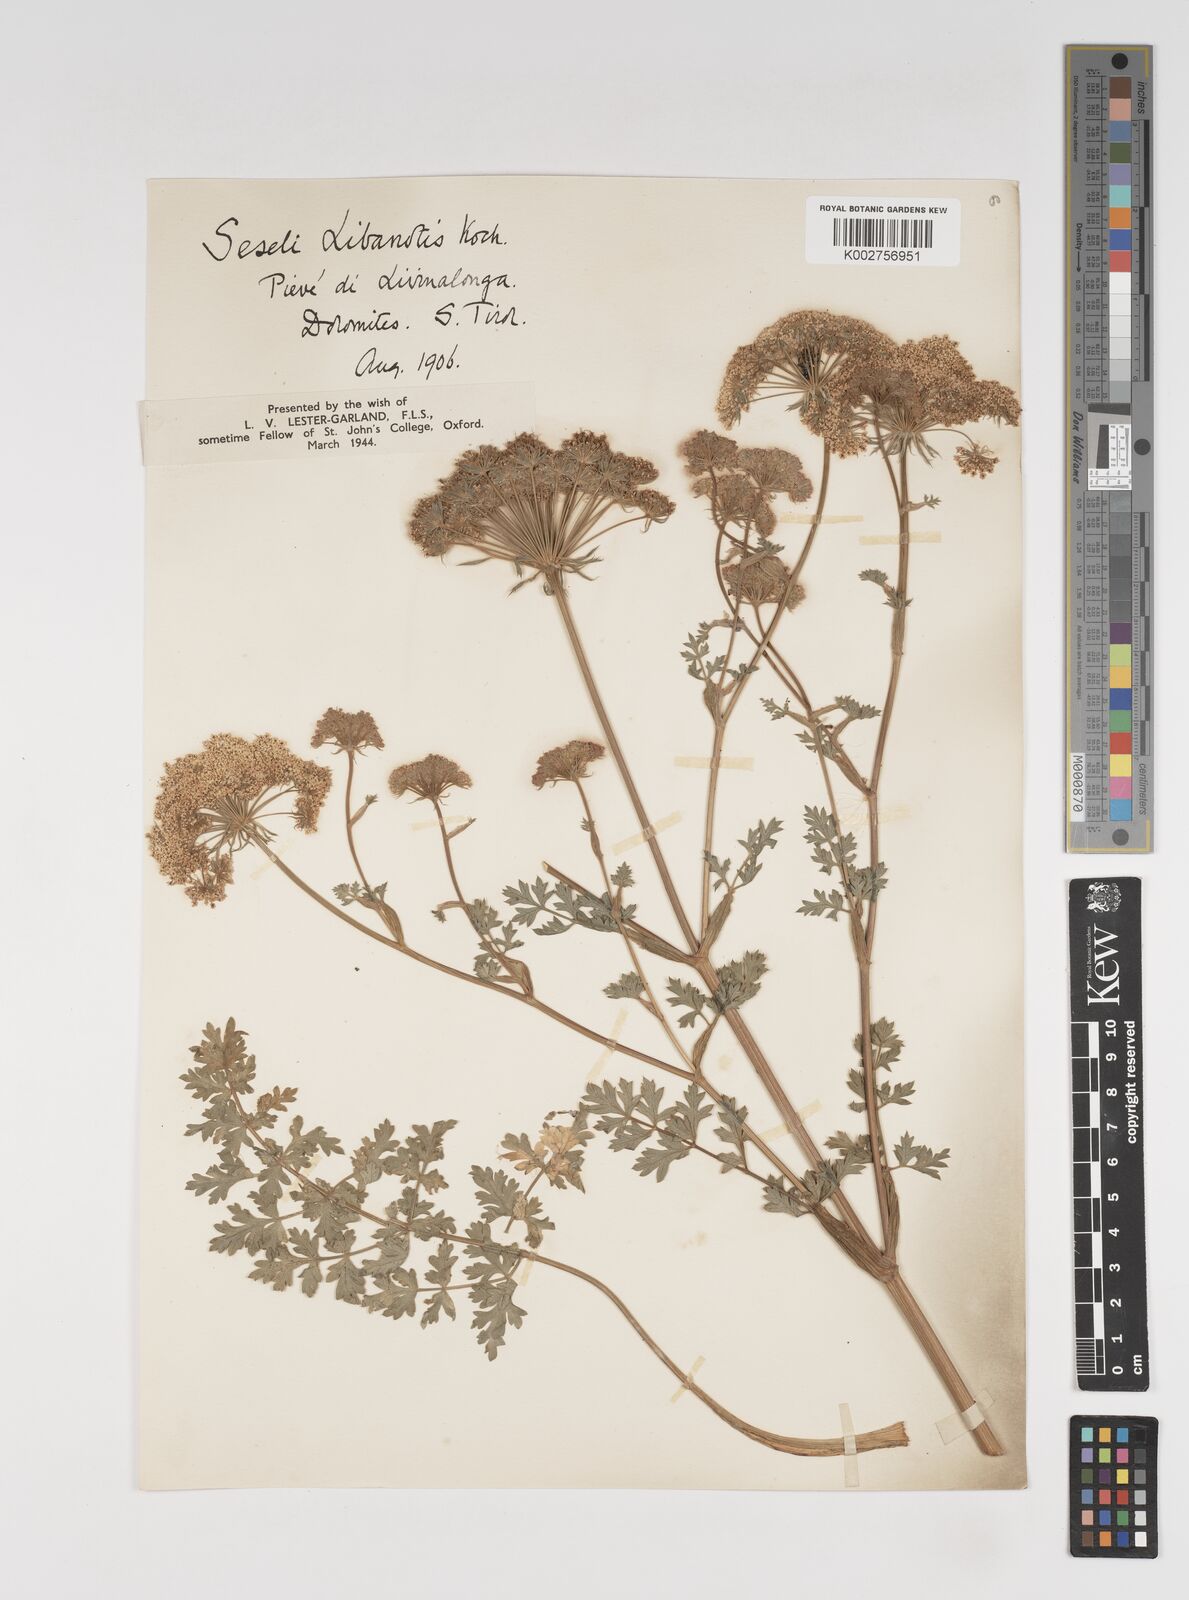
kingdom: Plantae
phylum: Tracheophyta
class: Magnoliopsida
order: Apiales
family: Apiaceae
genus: Seseli
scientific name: Seseli libanotis
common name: Mooncarrot
